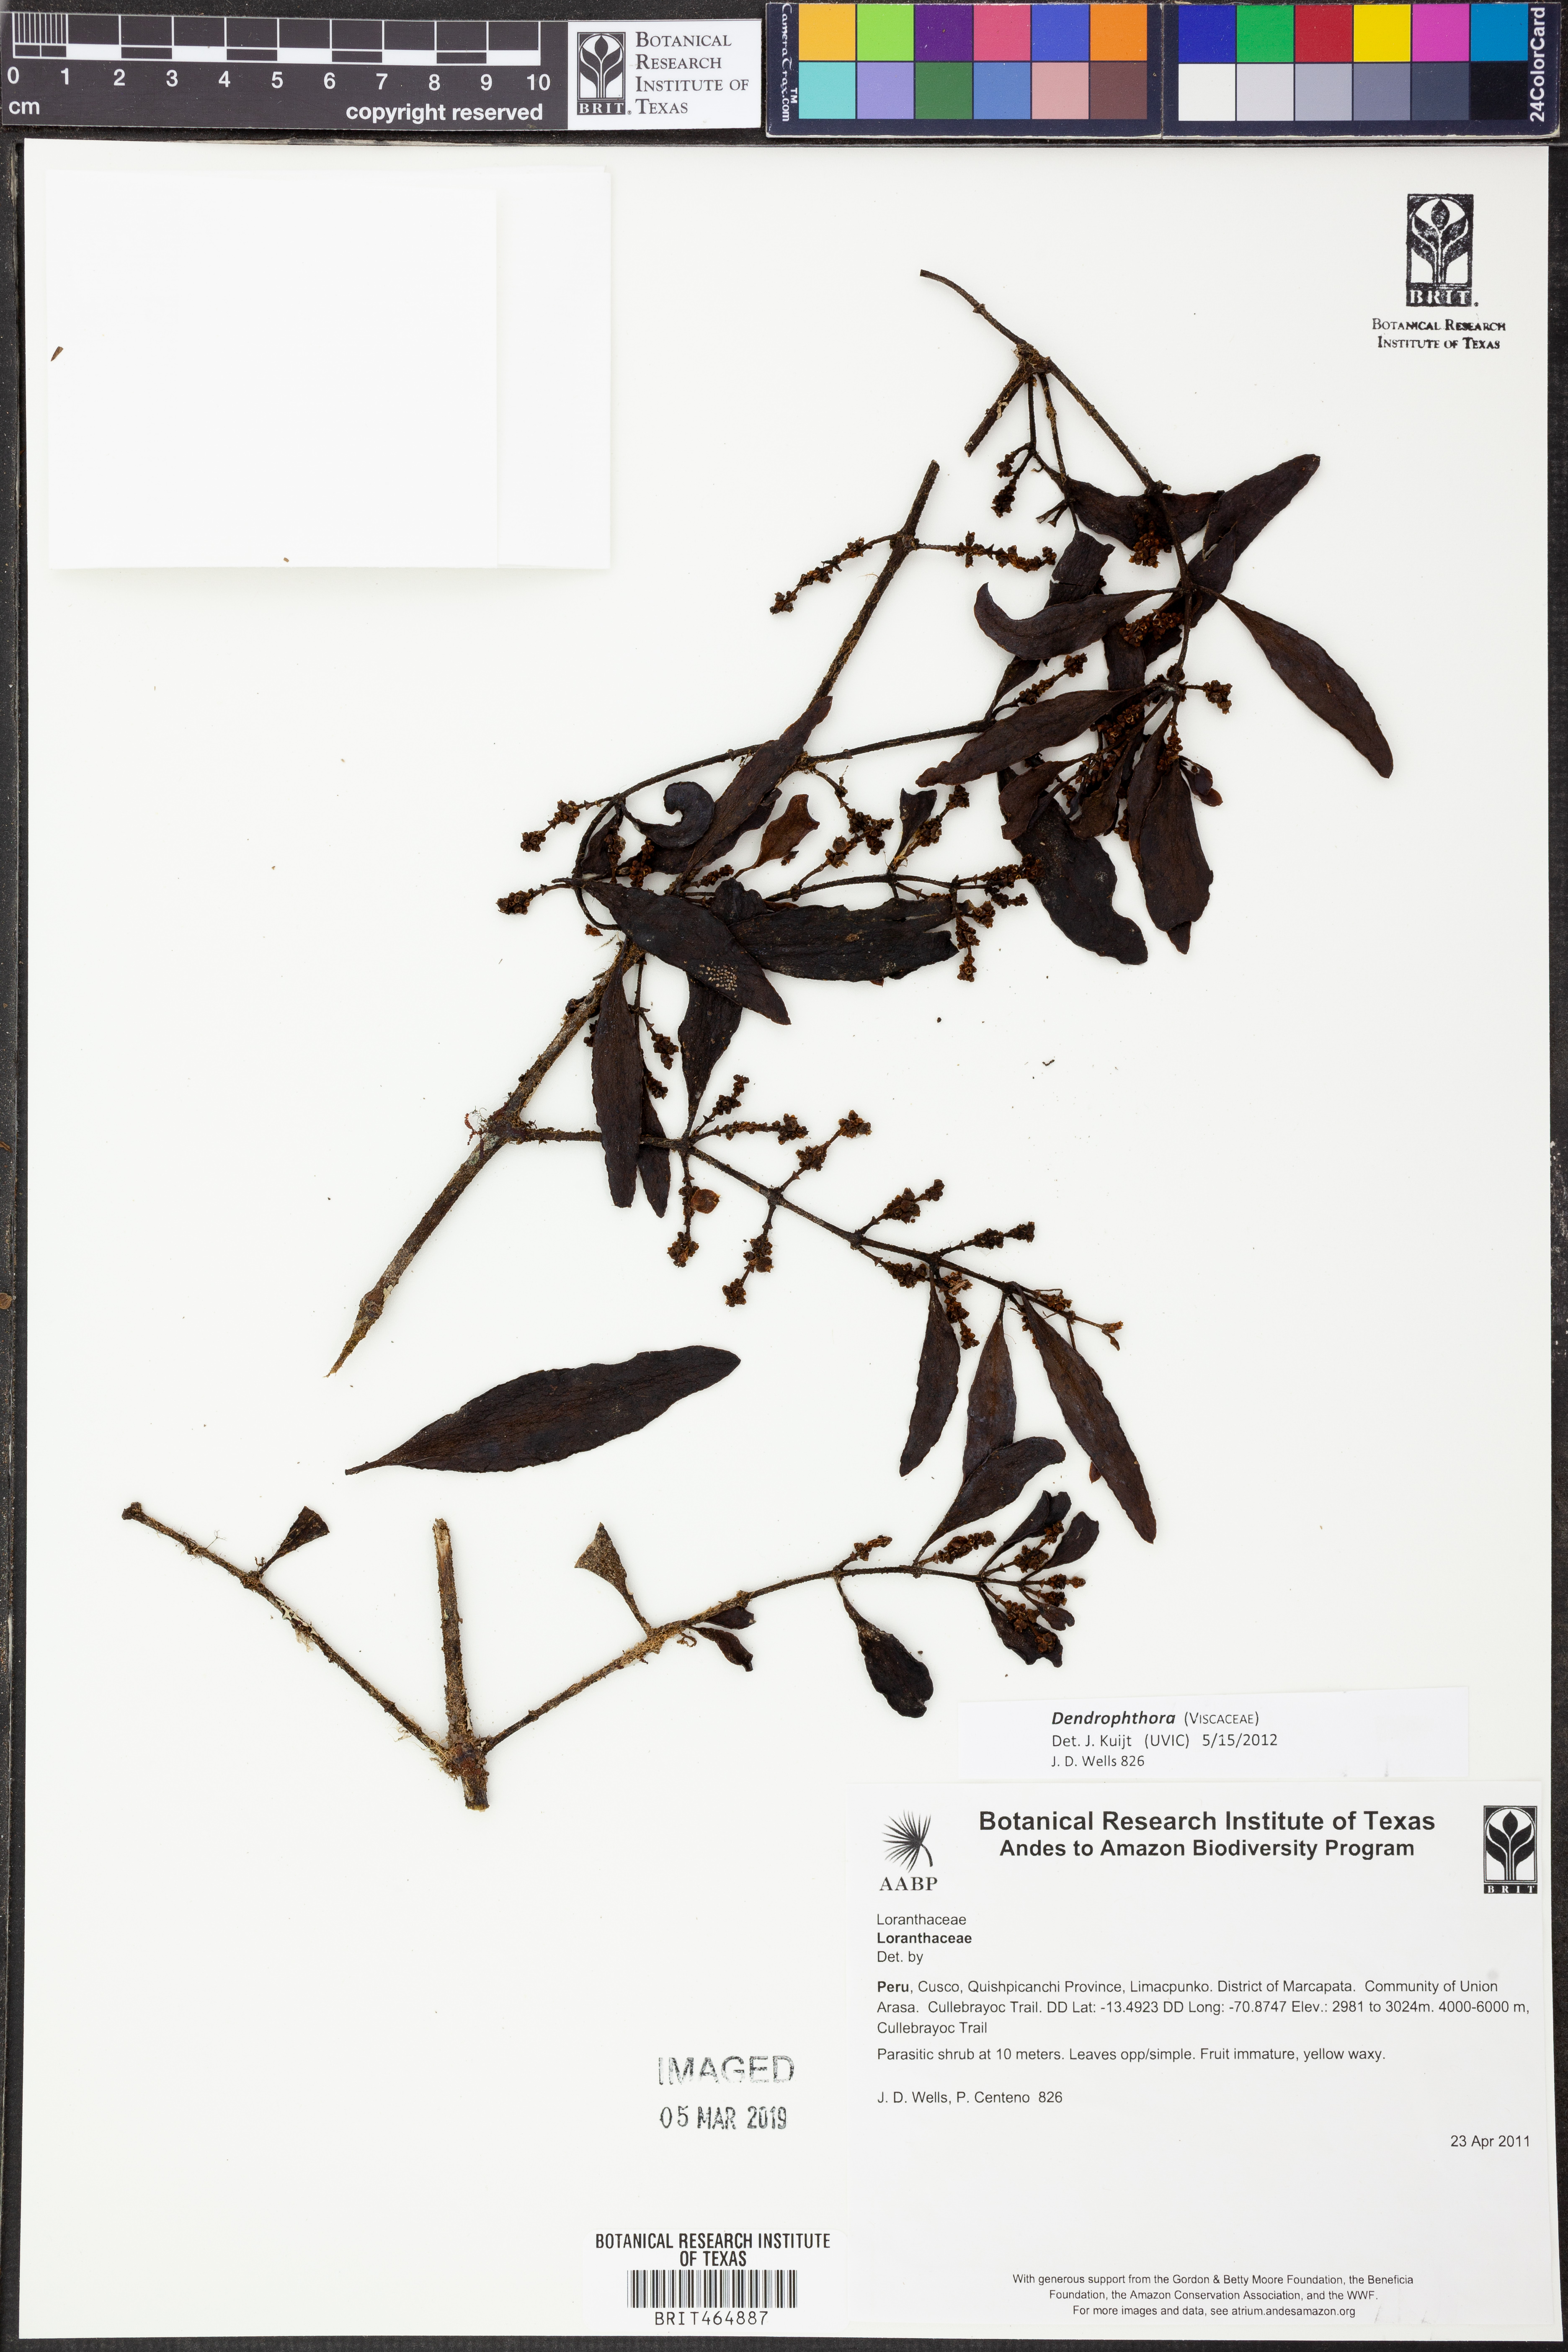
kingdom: Plantae
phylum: Tracheophyta
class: Magnoliopsida
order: Santalales
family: Viscaceae
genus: Dendrophthora
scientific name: Dendrophthora
